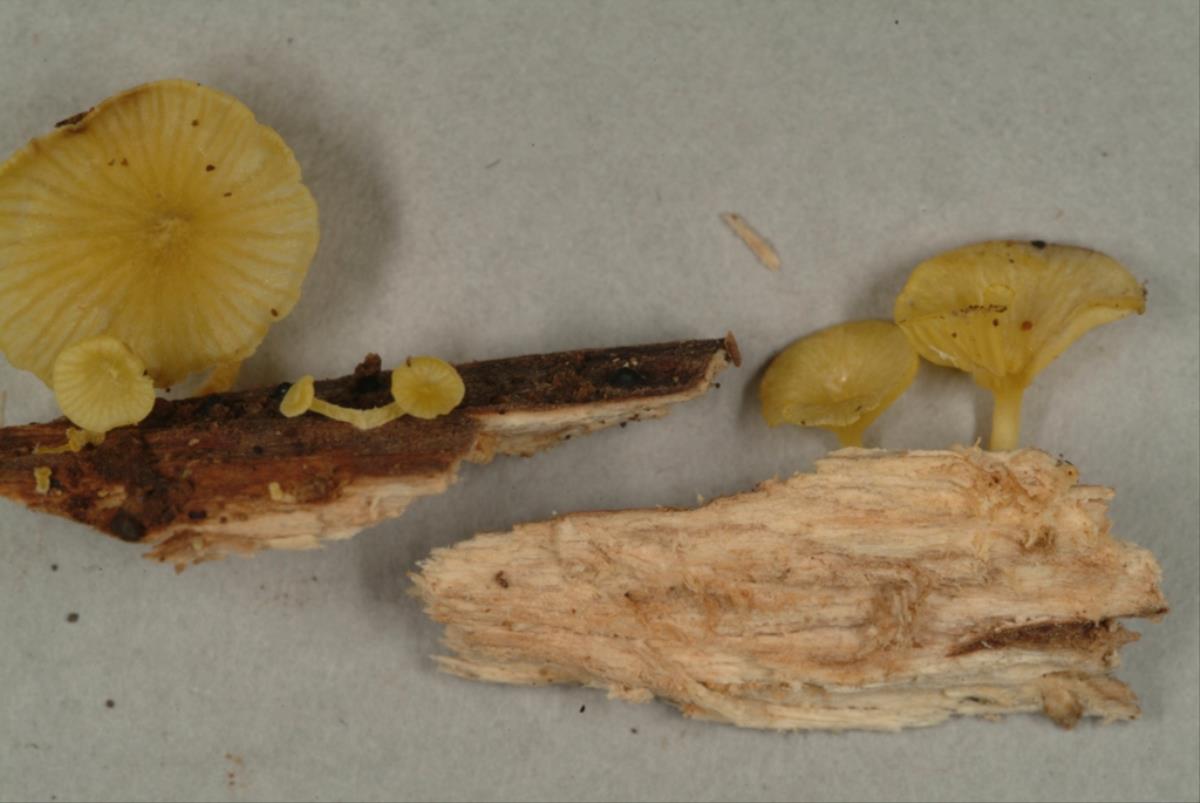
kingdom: Fungi
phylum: Basidiomycota
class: Agaricomycetes
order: Agaricales
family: Marasmiaceae
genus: Gerronema
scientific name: Gerronema
